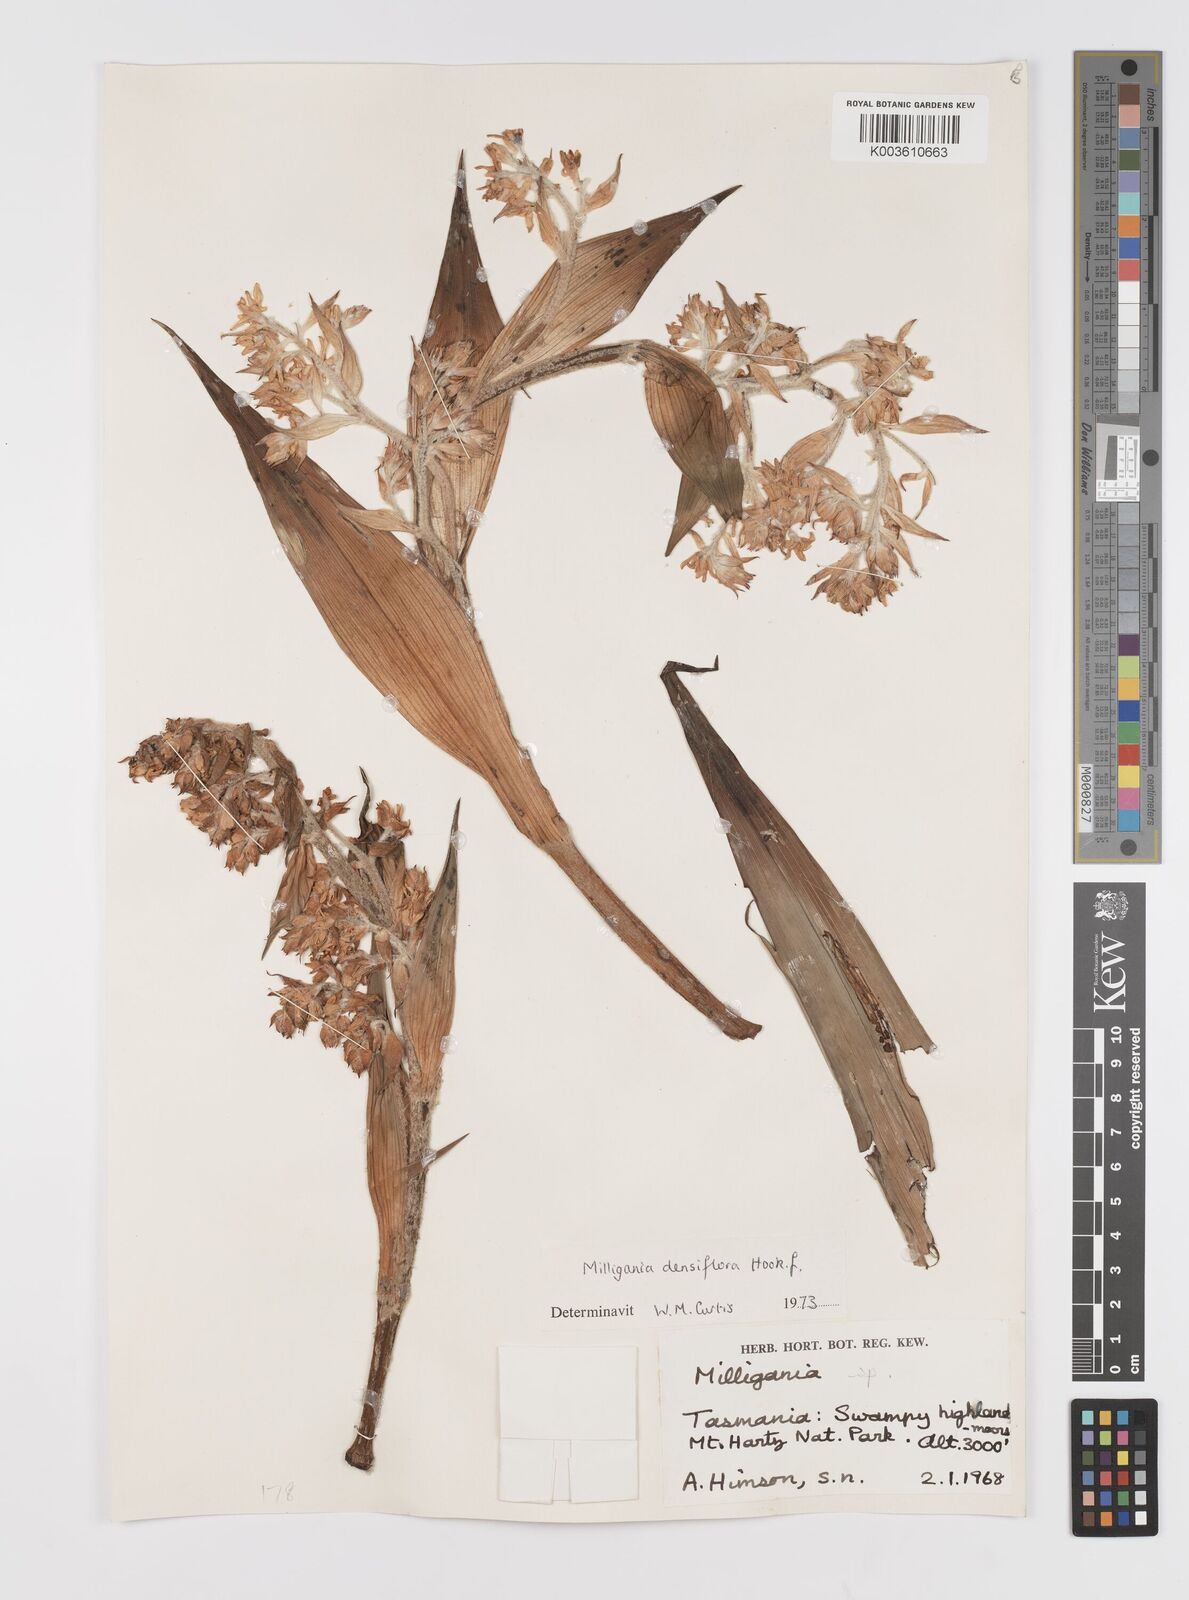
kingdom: Plantae
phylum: Tracheophyta
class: Liliopsida
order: Asparagales
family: Asteliaceae
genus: Milligania
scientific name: Milligania densiflora
